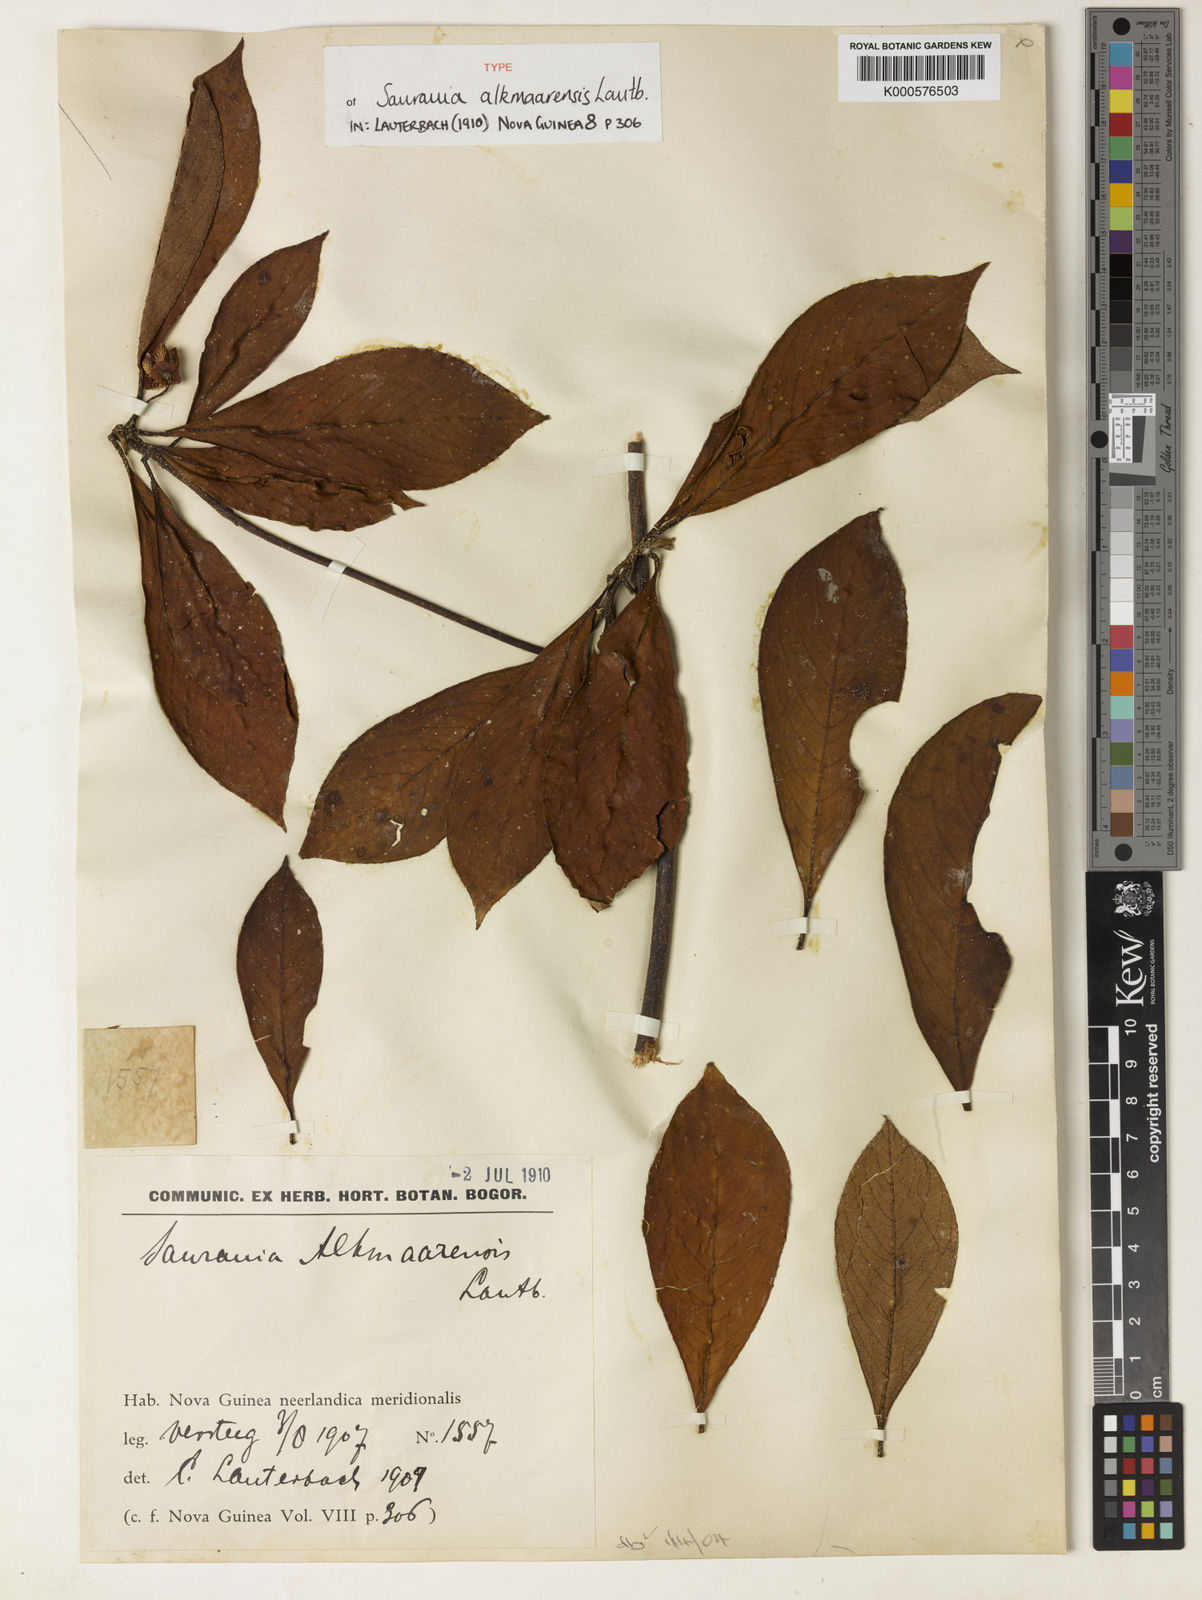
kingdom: Plantae
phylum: Tracheophyta
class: Magnoliopsida
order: Ericales
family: Actinidiaceae
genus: Saurauia
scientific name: Saurauia alkmaarensis
